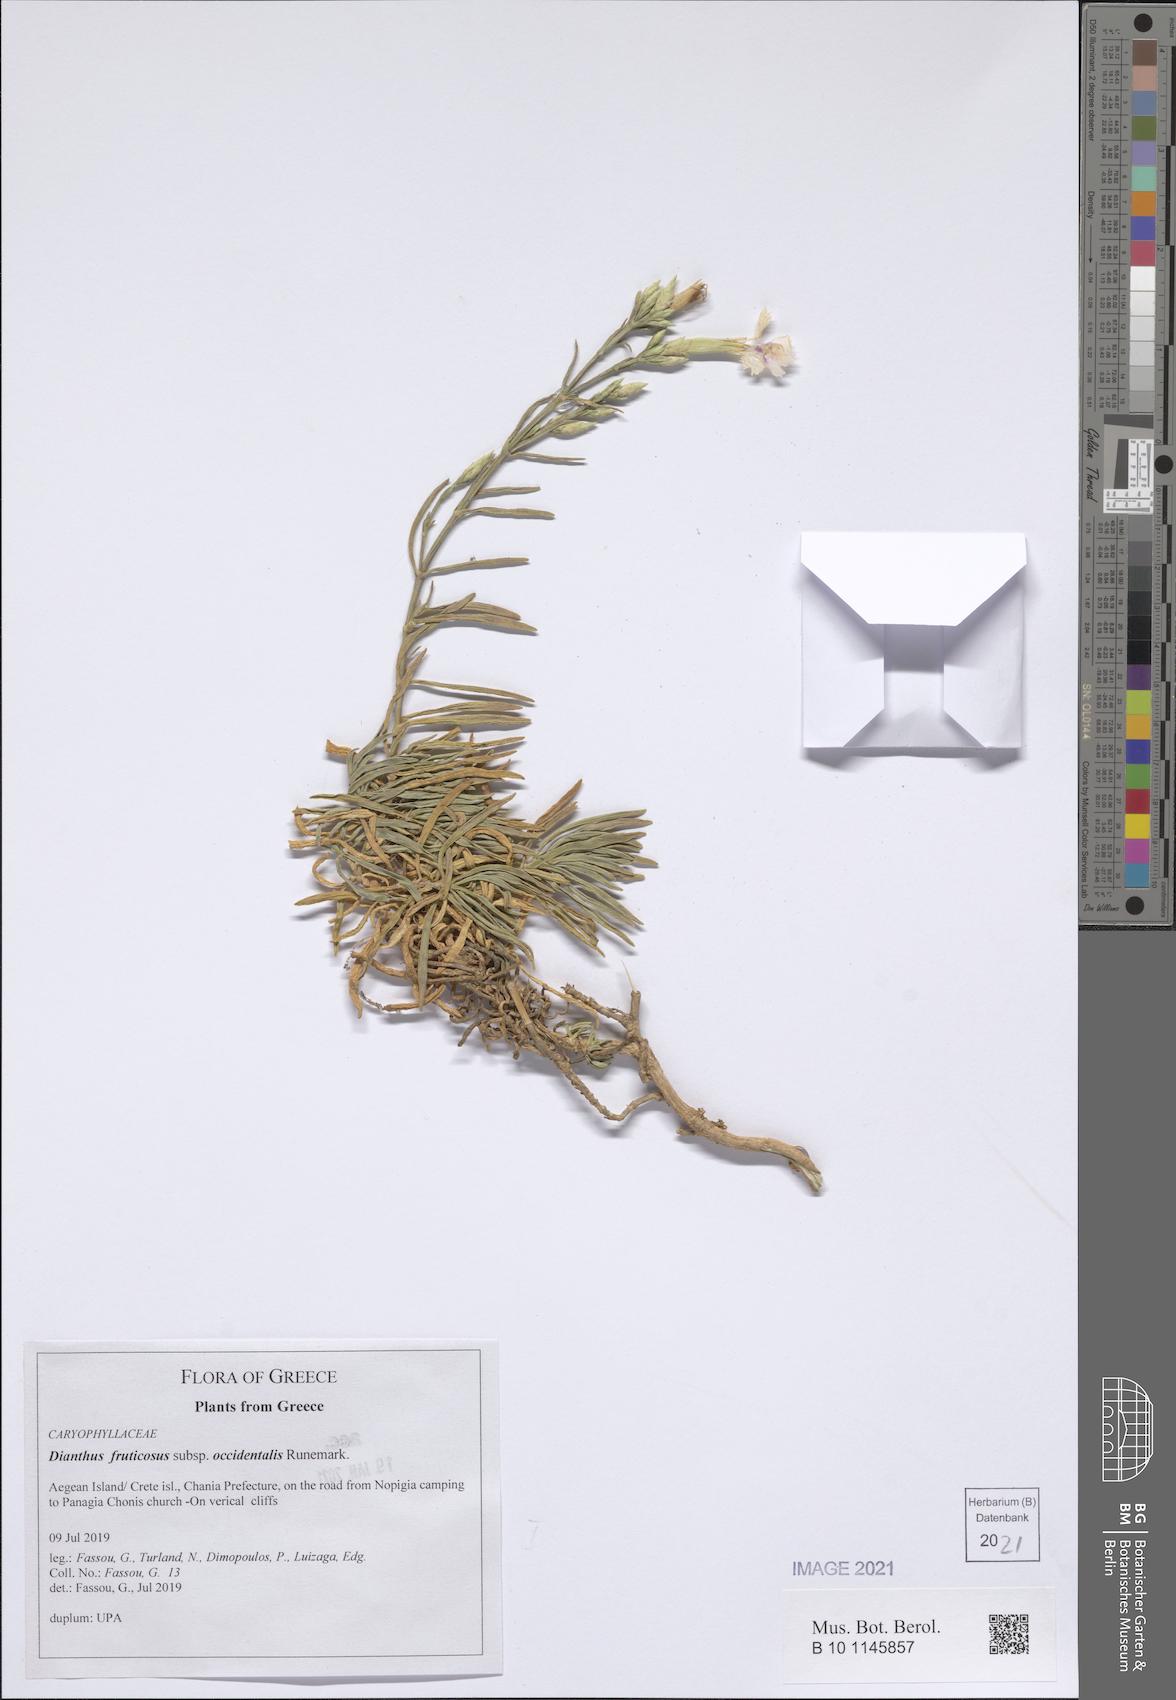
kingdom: Plantae
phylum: Tracheophyta
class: Magnoliopsida
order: Caryophyllales
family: Caryophyllaceae
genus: Dianthus
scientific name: Dianthus fruticosus
